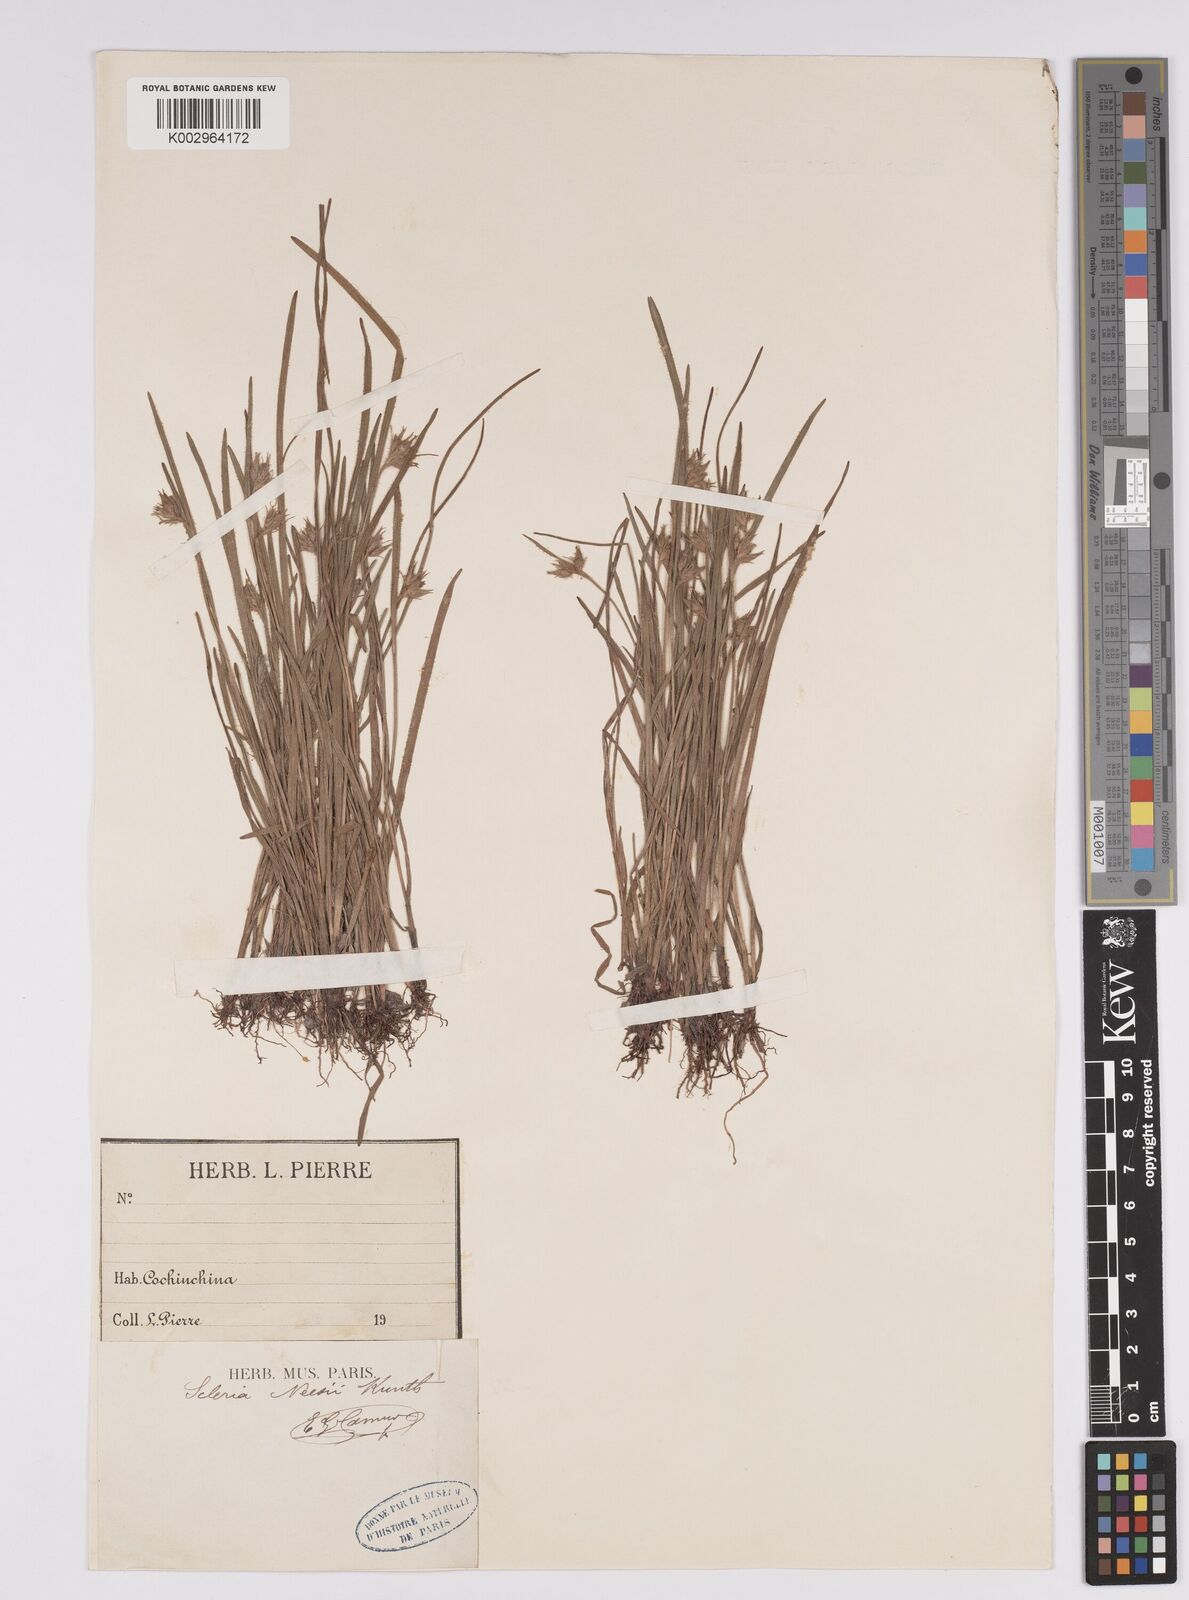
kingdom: Plantae
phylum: Tracheophyta
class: Liliopsida
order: Poales
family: Cyperaceae
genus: Scleria
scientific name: Scleria neesii
